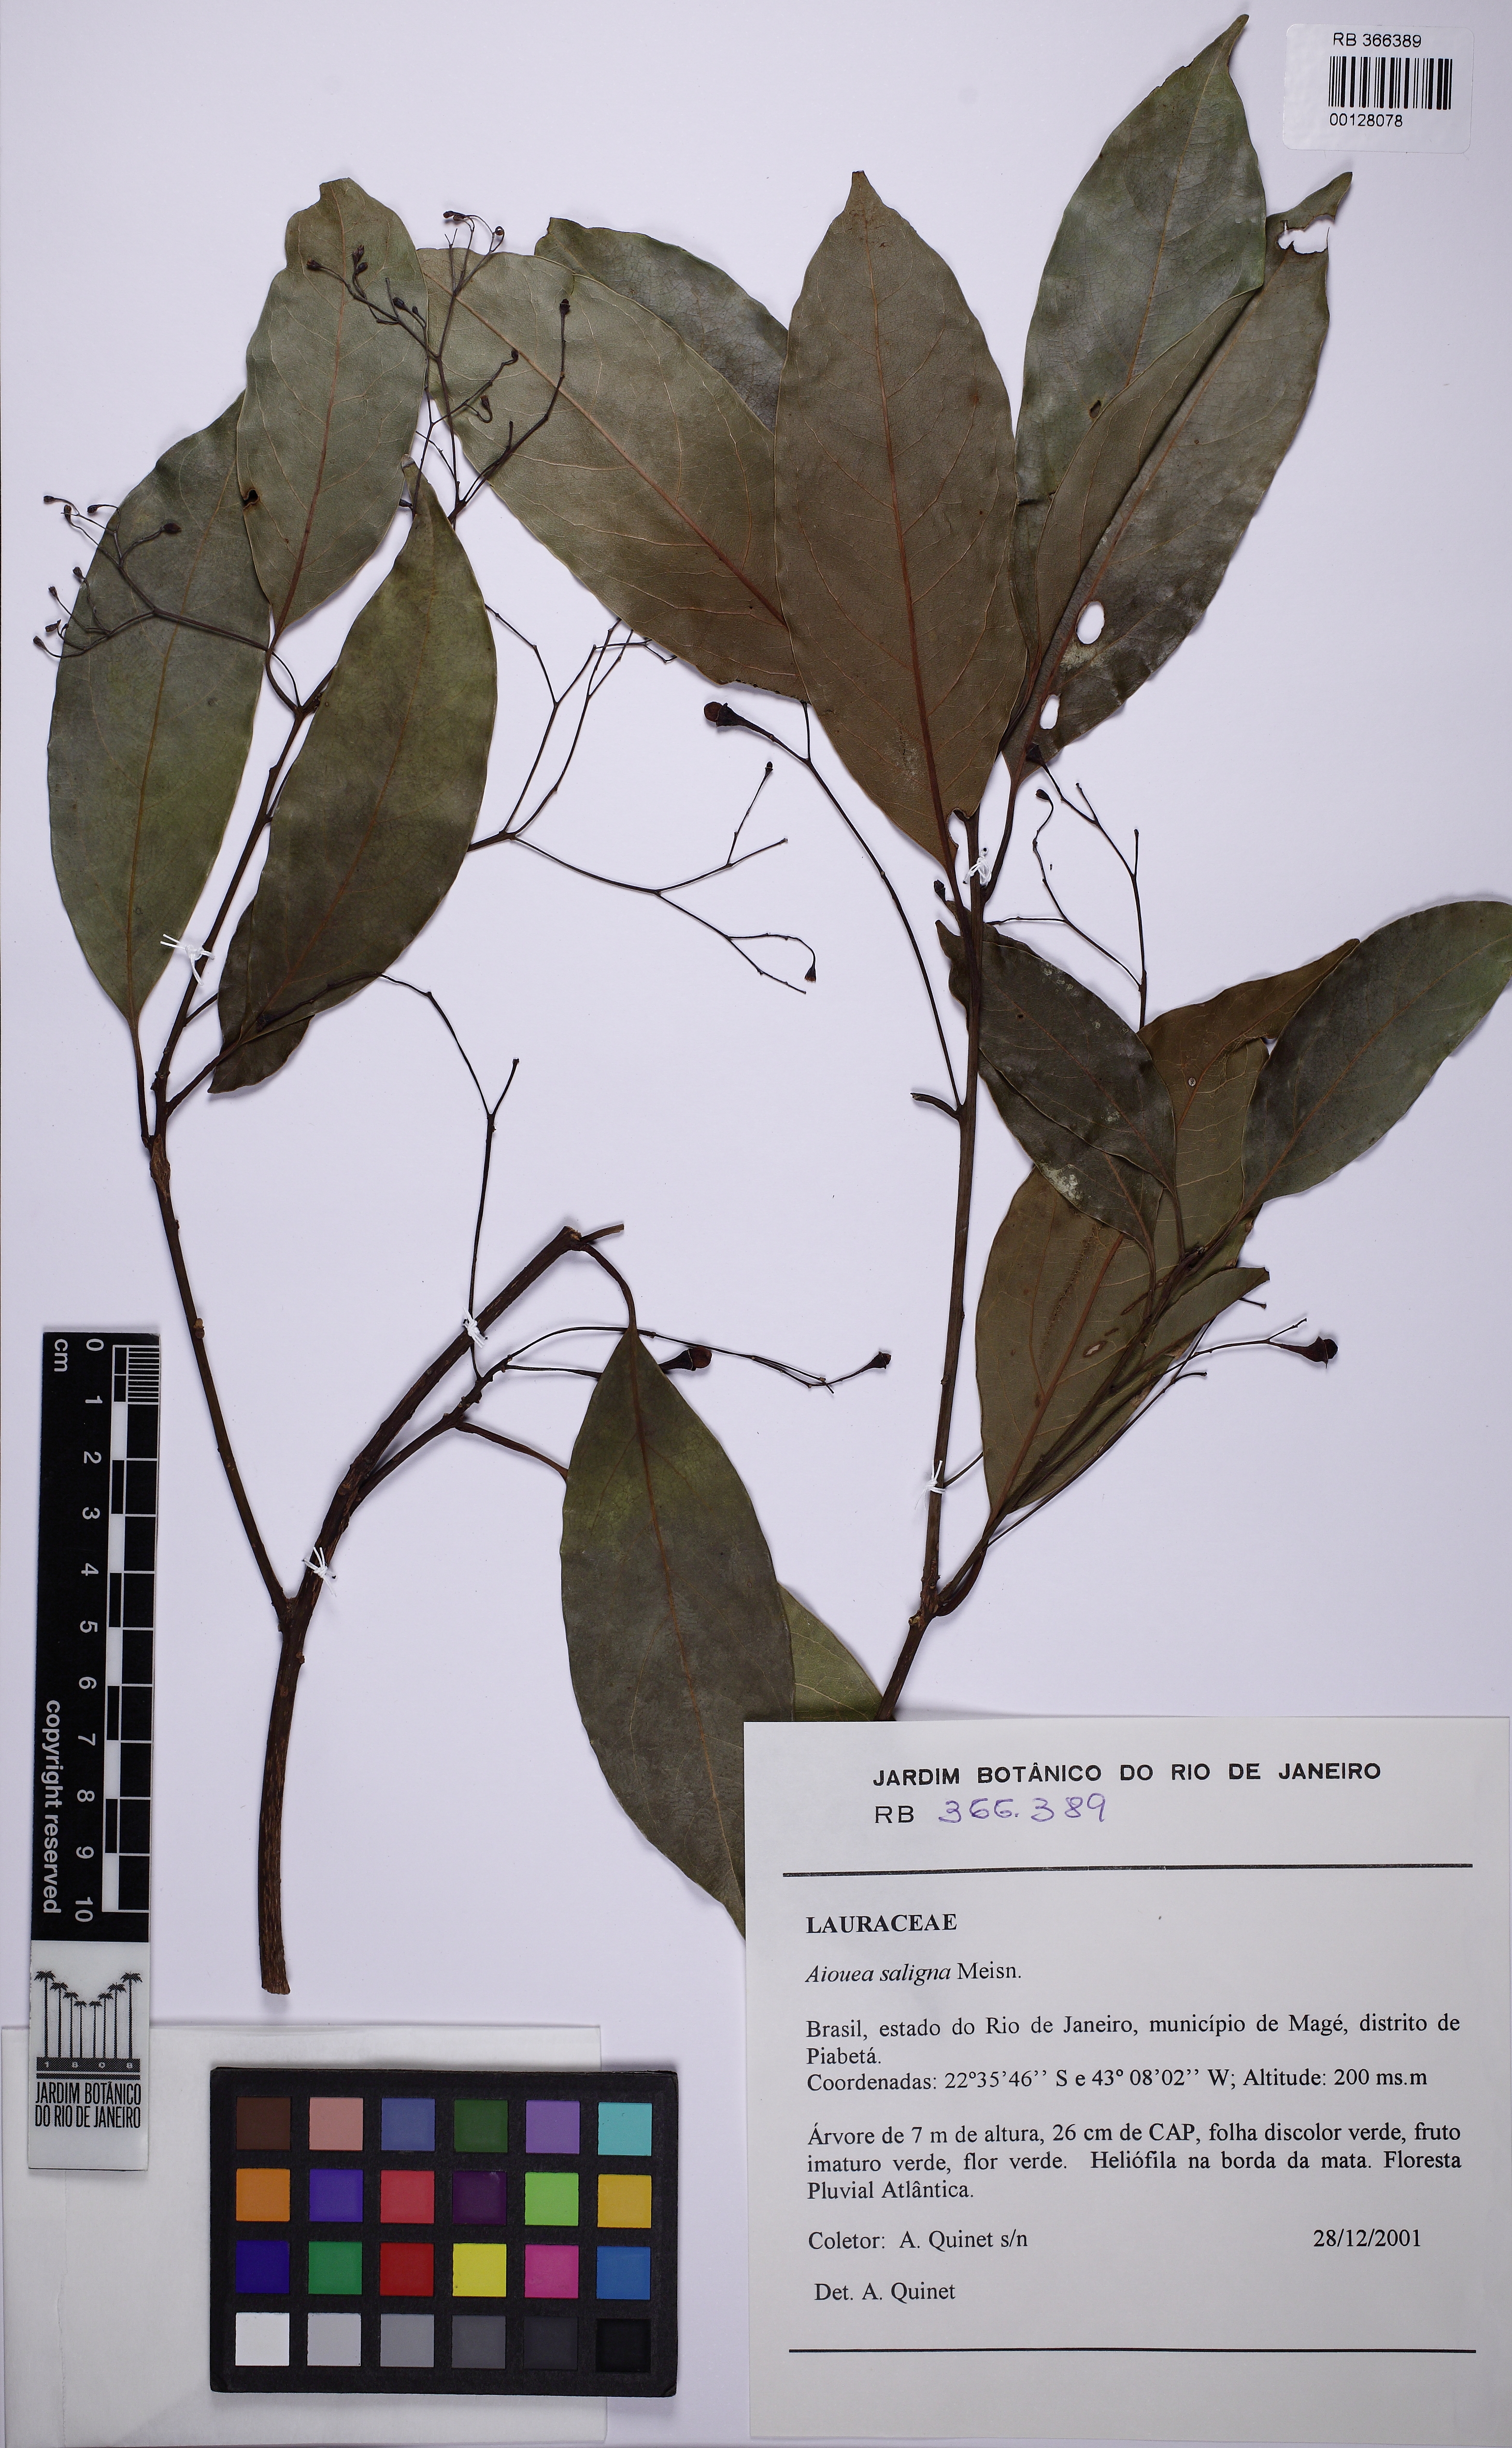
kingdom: Plantae
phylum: Tracheophyta
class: Magnoliopsida
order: Laurales
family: Lauraceae
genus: Aiouea
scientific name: Aiouea saligna
